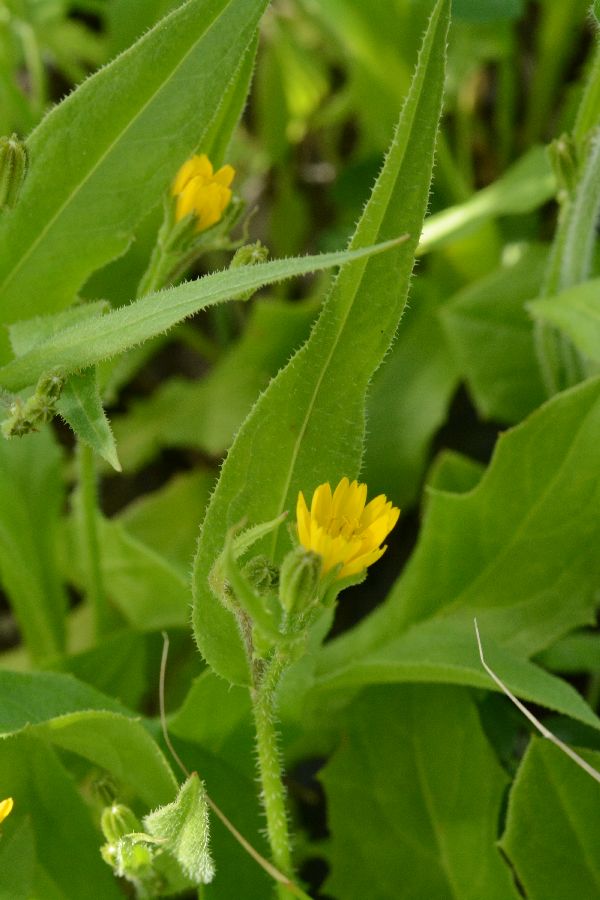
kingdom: Plantae
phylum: Tracheophyta
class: Magnoliopsida
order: Asterales
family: Asteraceae
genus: Rhagadiolus
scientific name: Rhagadiolus edulis
